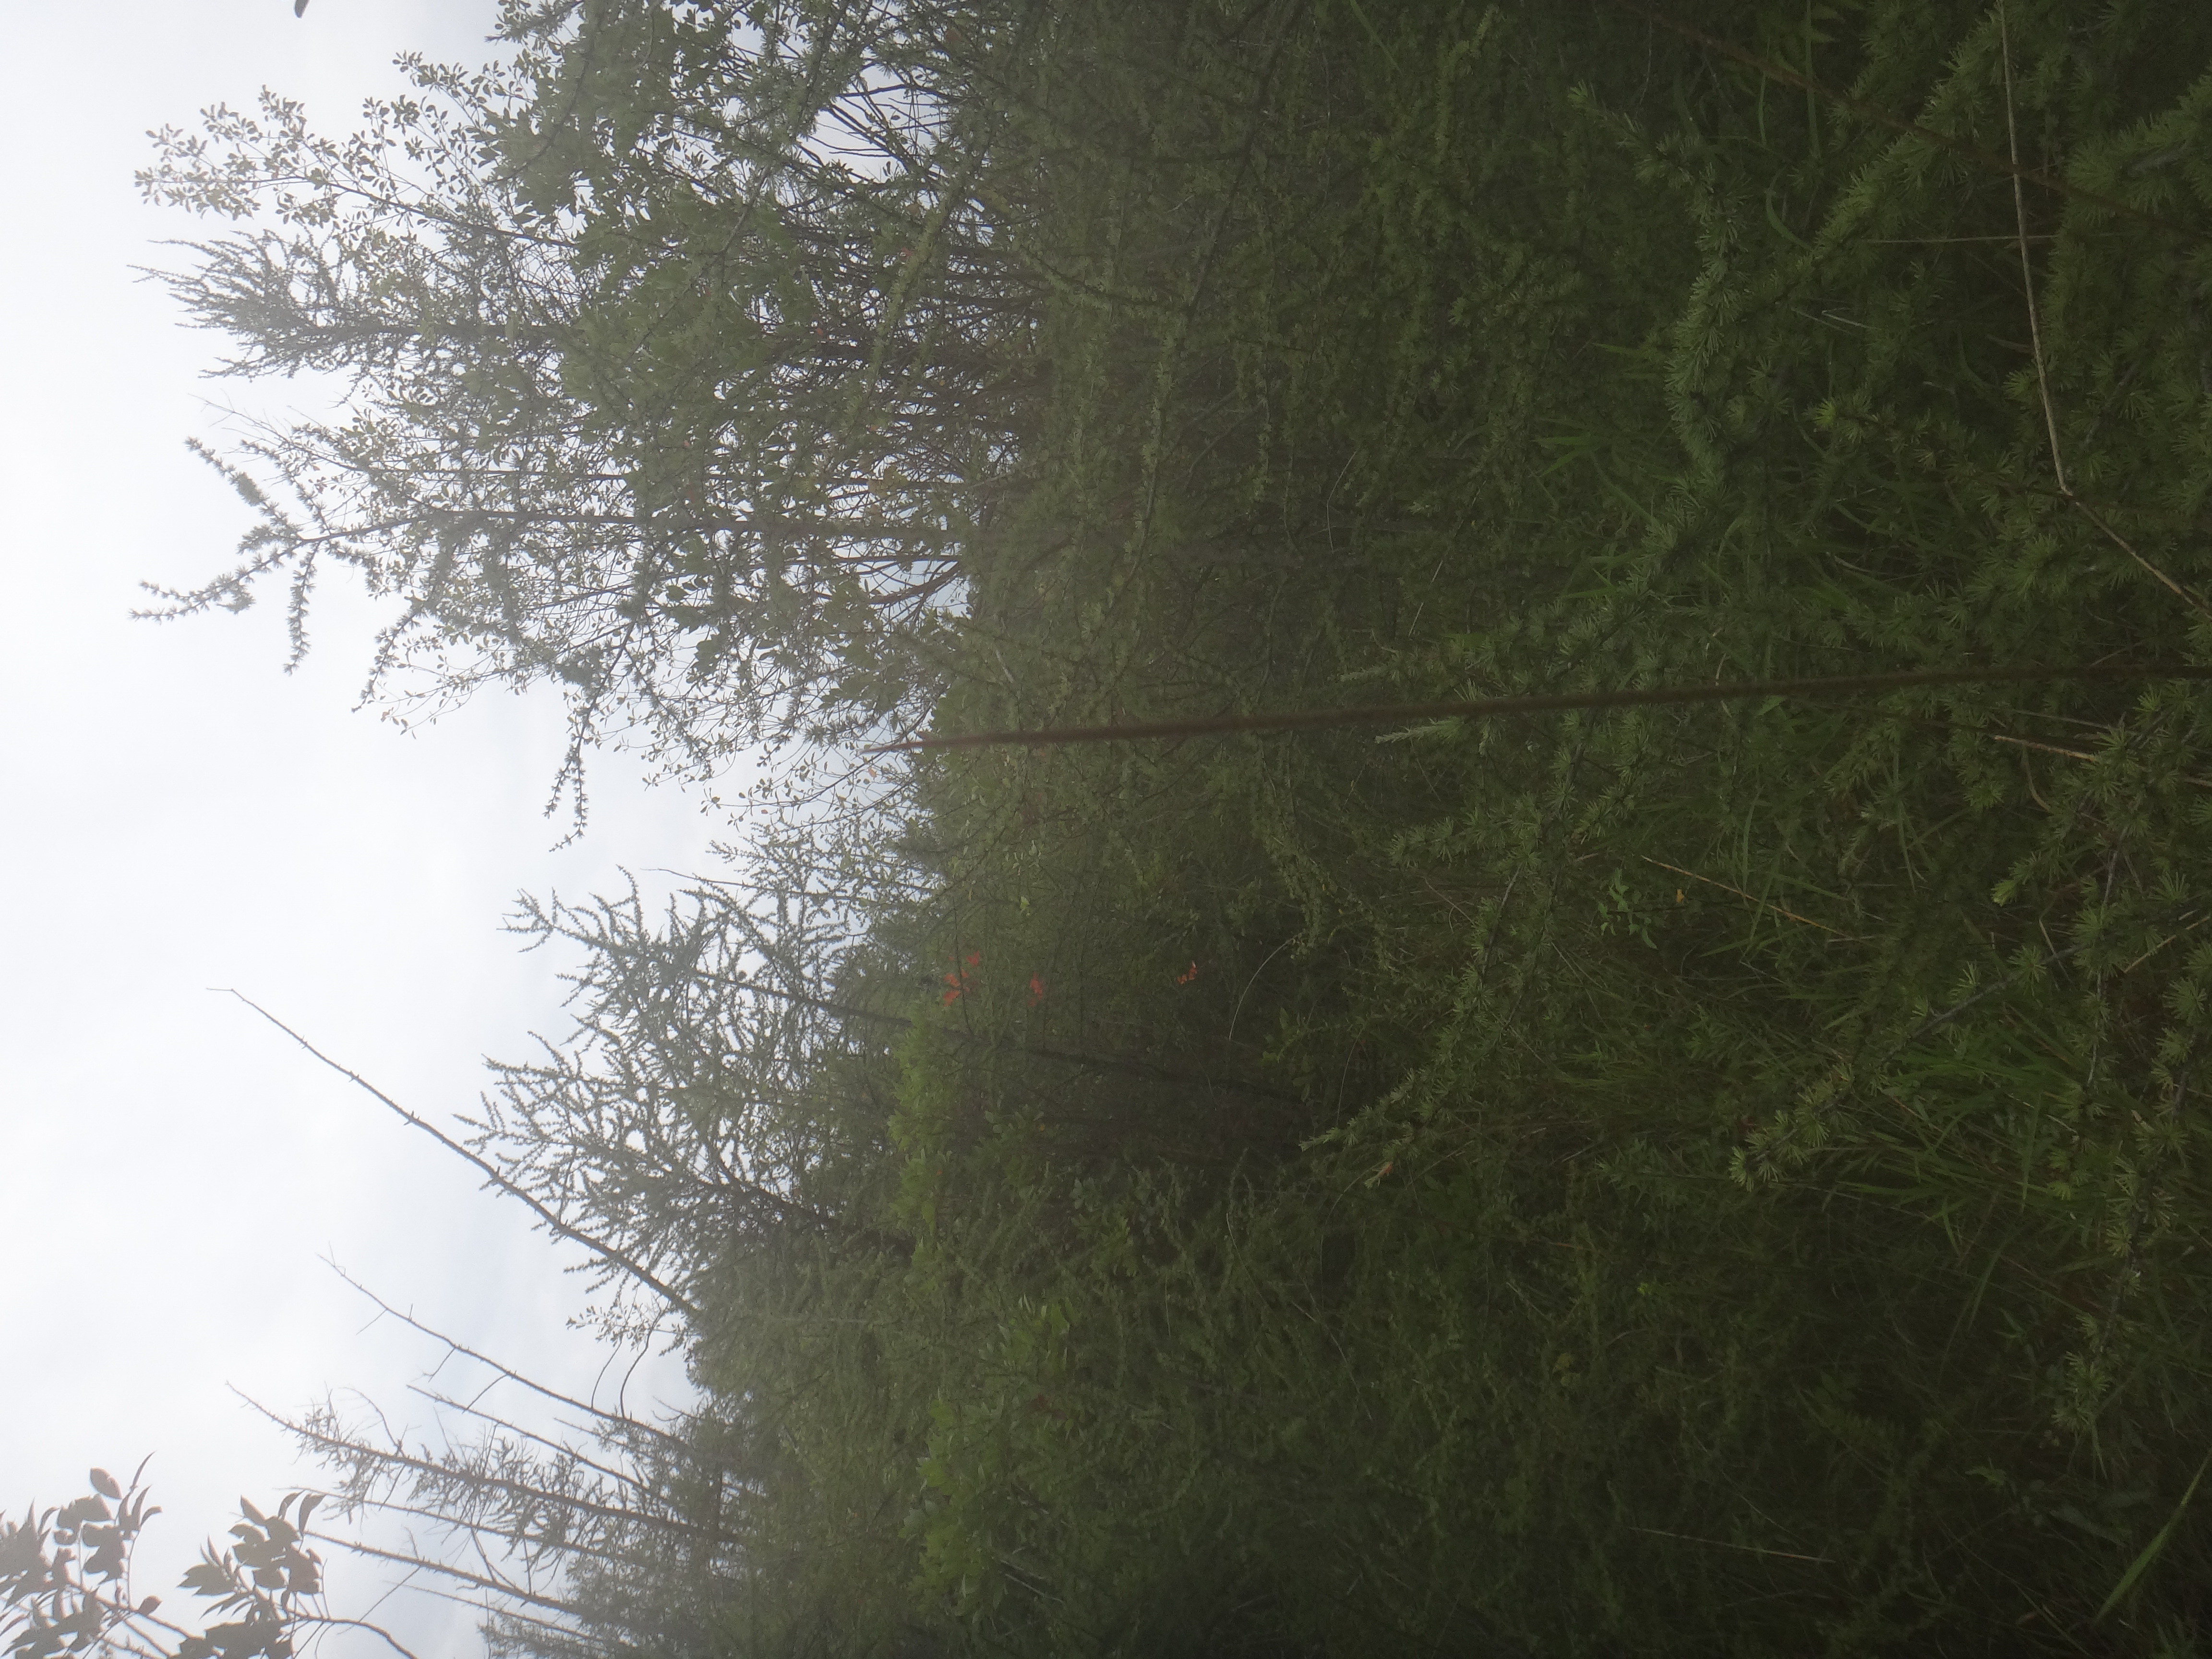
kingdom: Plantae
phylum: Tracheophyta
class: Liliopsida
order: Poales
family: Cyperaceae
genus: Carex
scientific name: Carex sterilis
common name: Dioecious sedge
